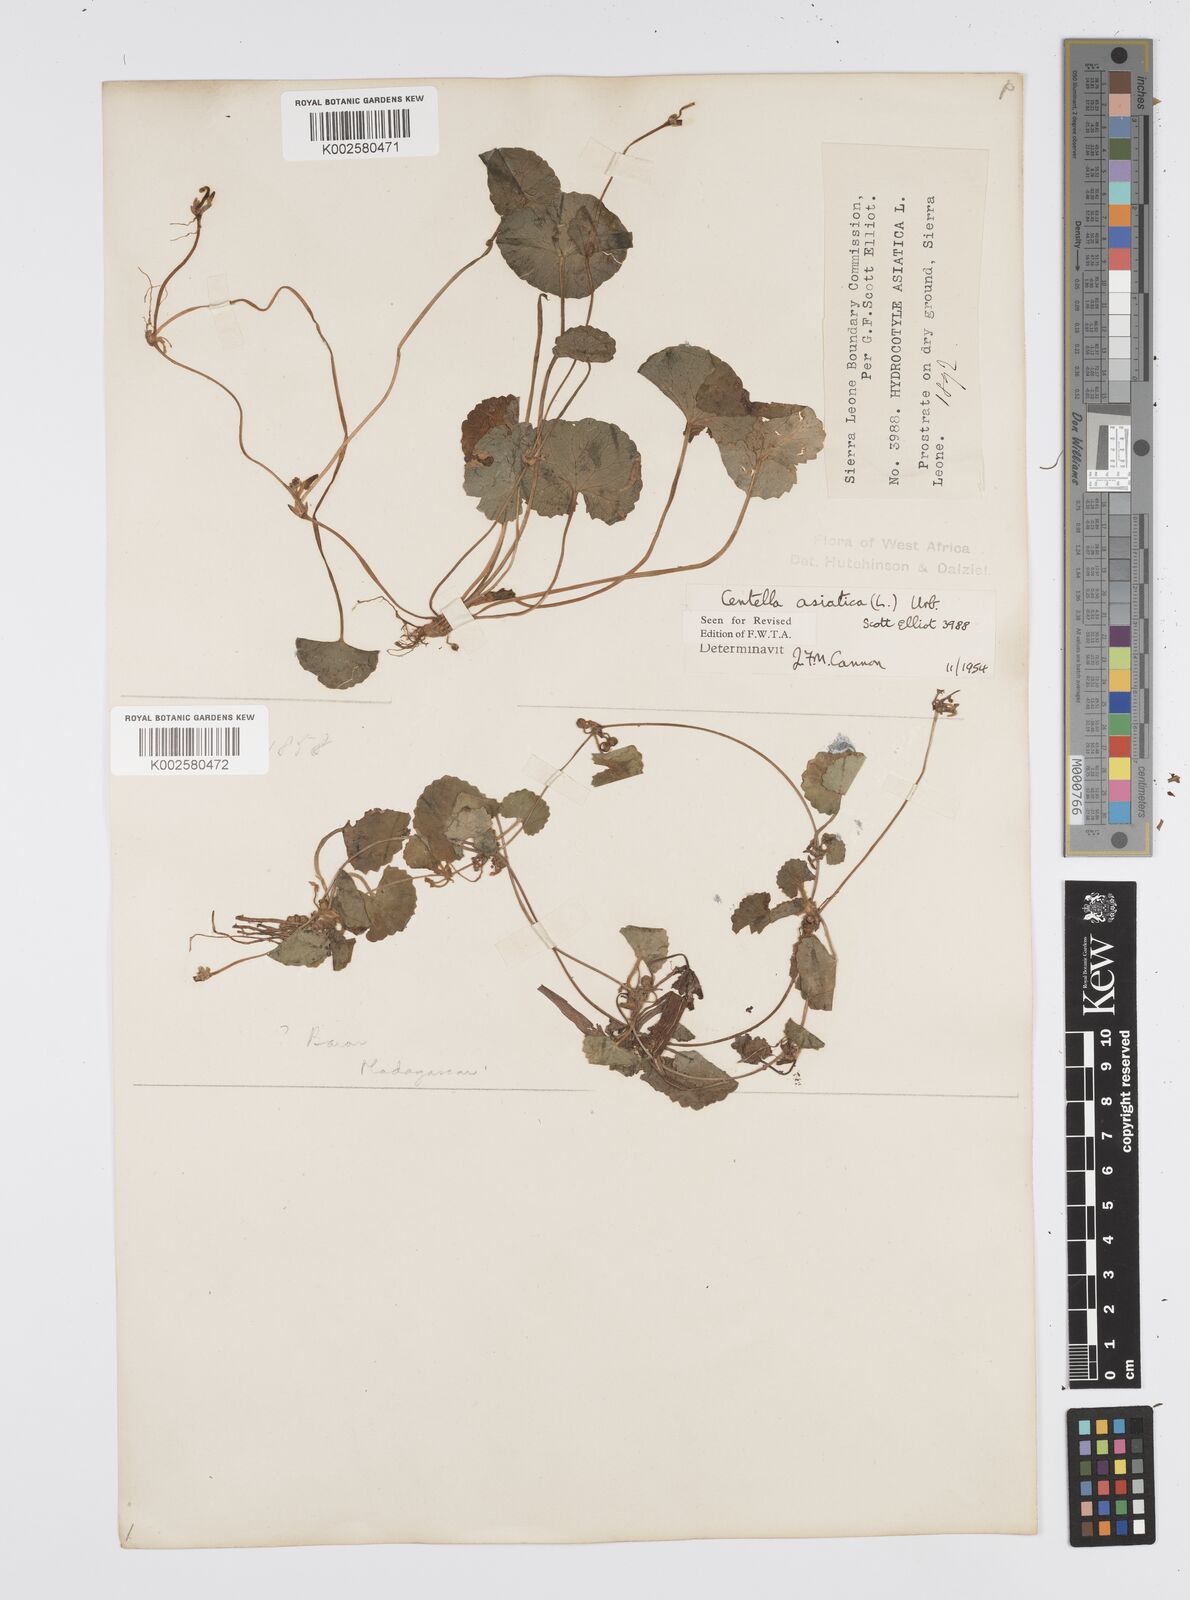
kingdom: Plantae
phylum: Tracheophyta
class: Magnoliopsida
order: Apiales
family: Apiaceae
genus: Centella
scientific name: Centella asiatica
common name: Spadeleaf
